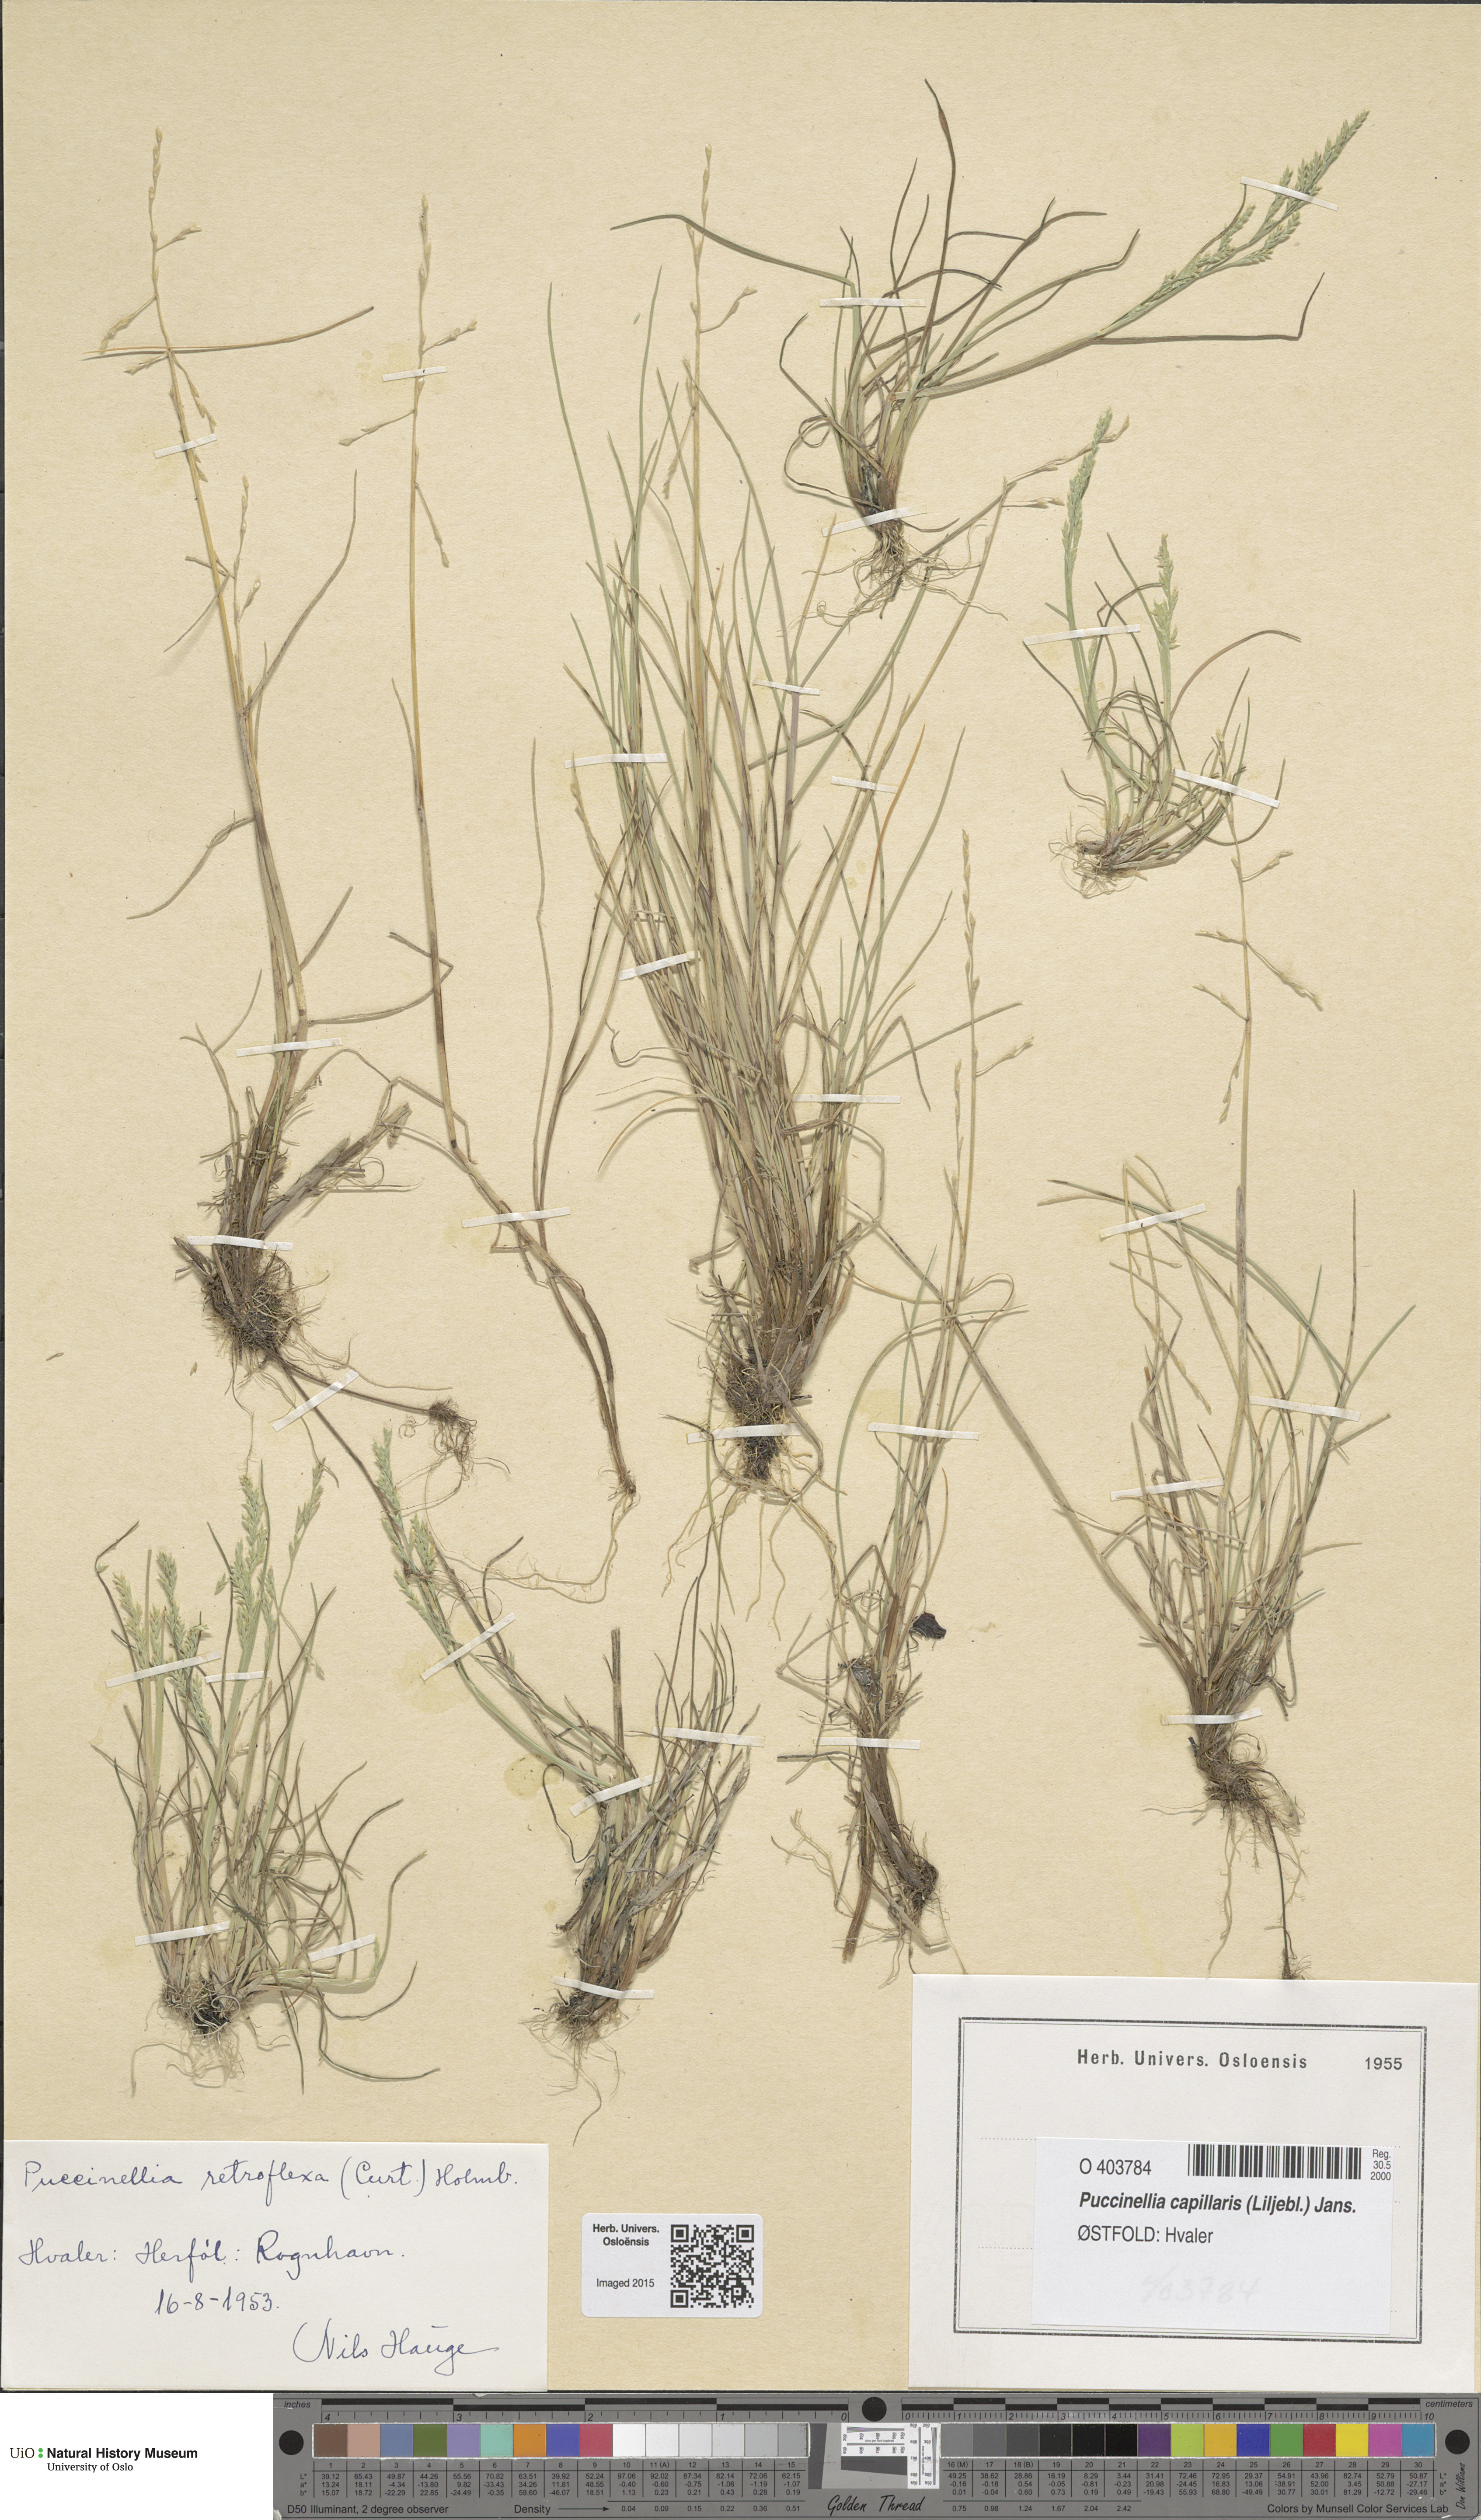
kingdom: Plantae
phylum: Tracheophyta
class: Liliopsida
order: Poales
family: Poaceae
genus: Puccinellia
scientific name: Puccinellia distans
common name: Weeping alkaligrass
